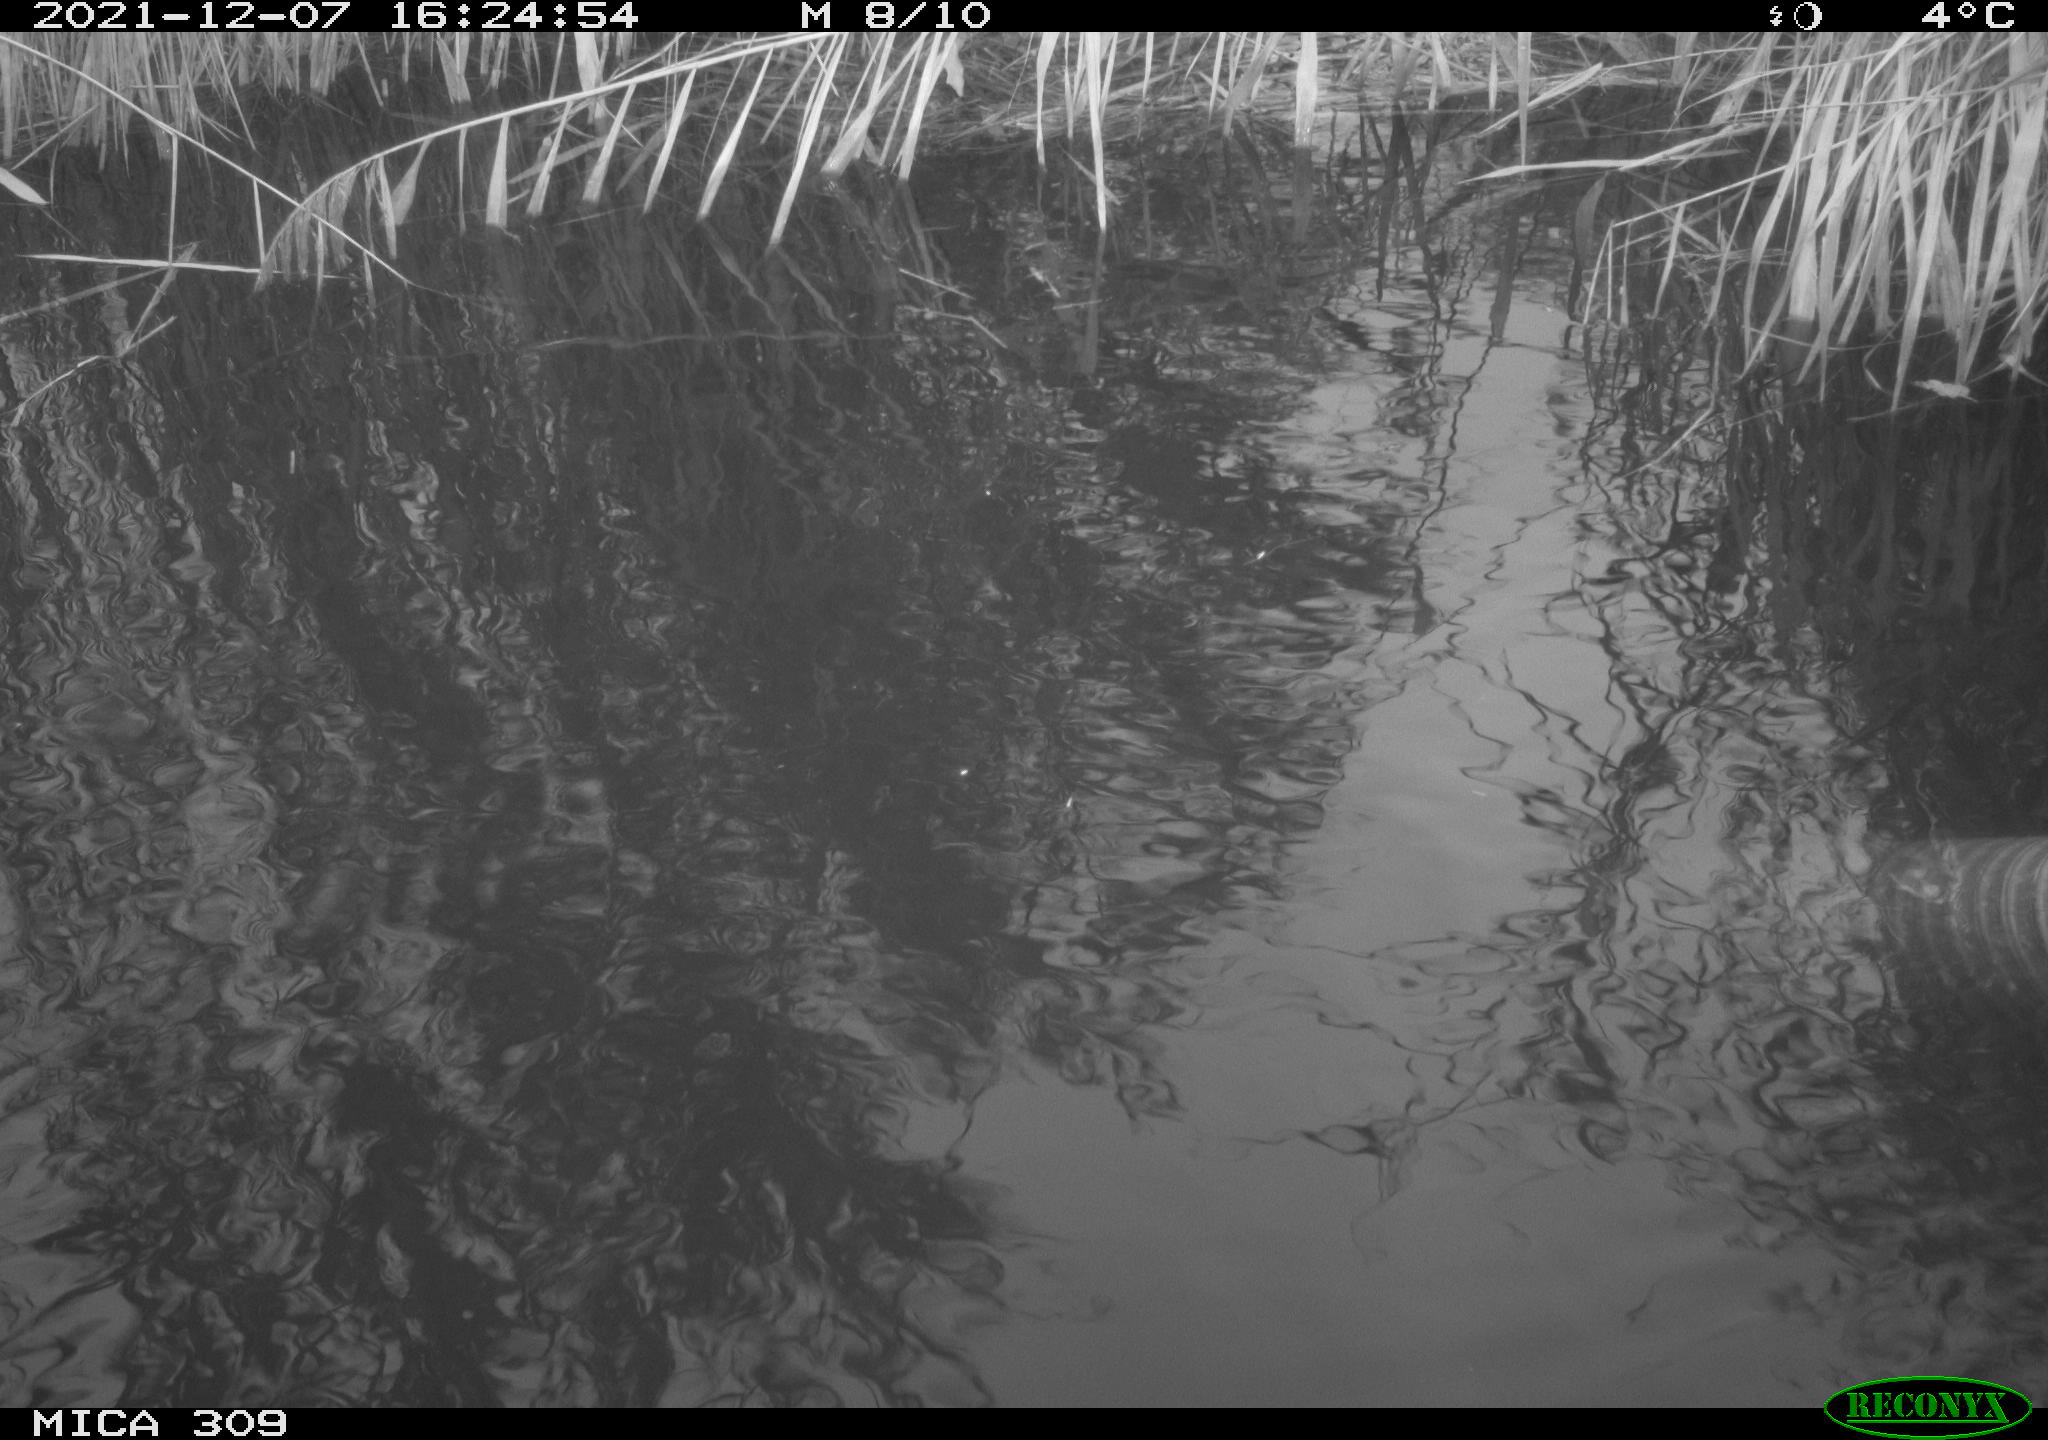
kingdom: Animalia
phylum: Chordata
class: Aves
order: Gruiformes
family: Rallidae
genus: Gallinula
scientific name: Gallinula chloropus
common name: Common moorhen
